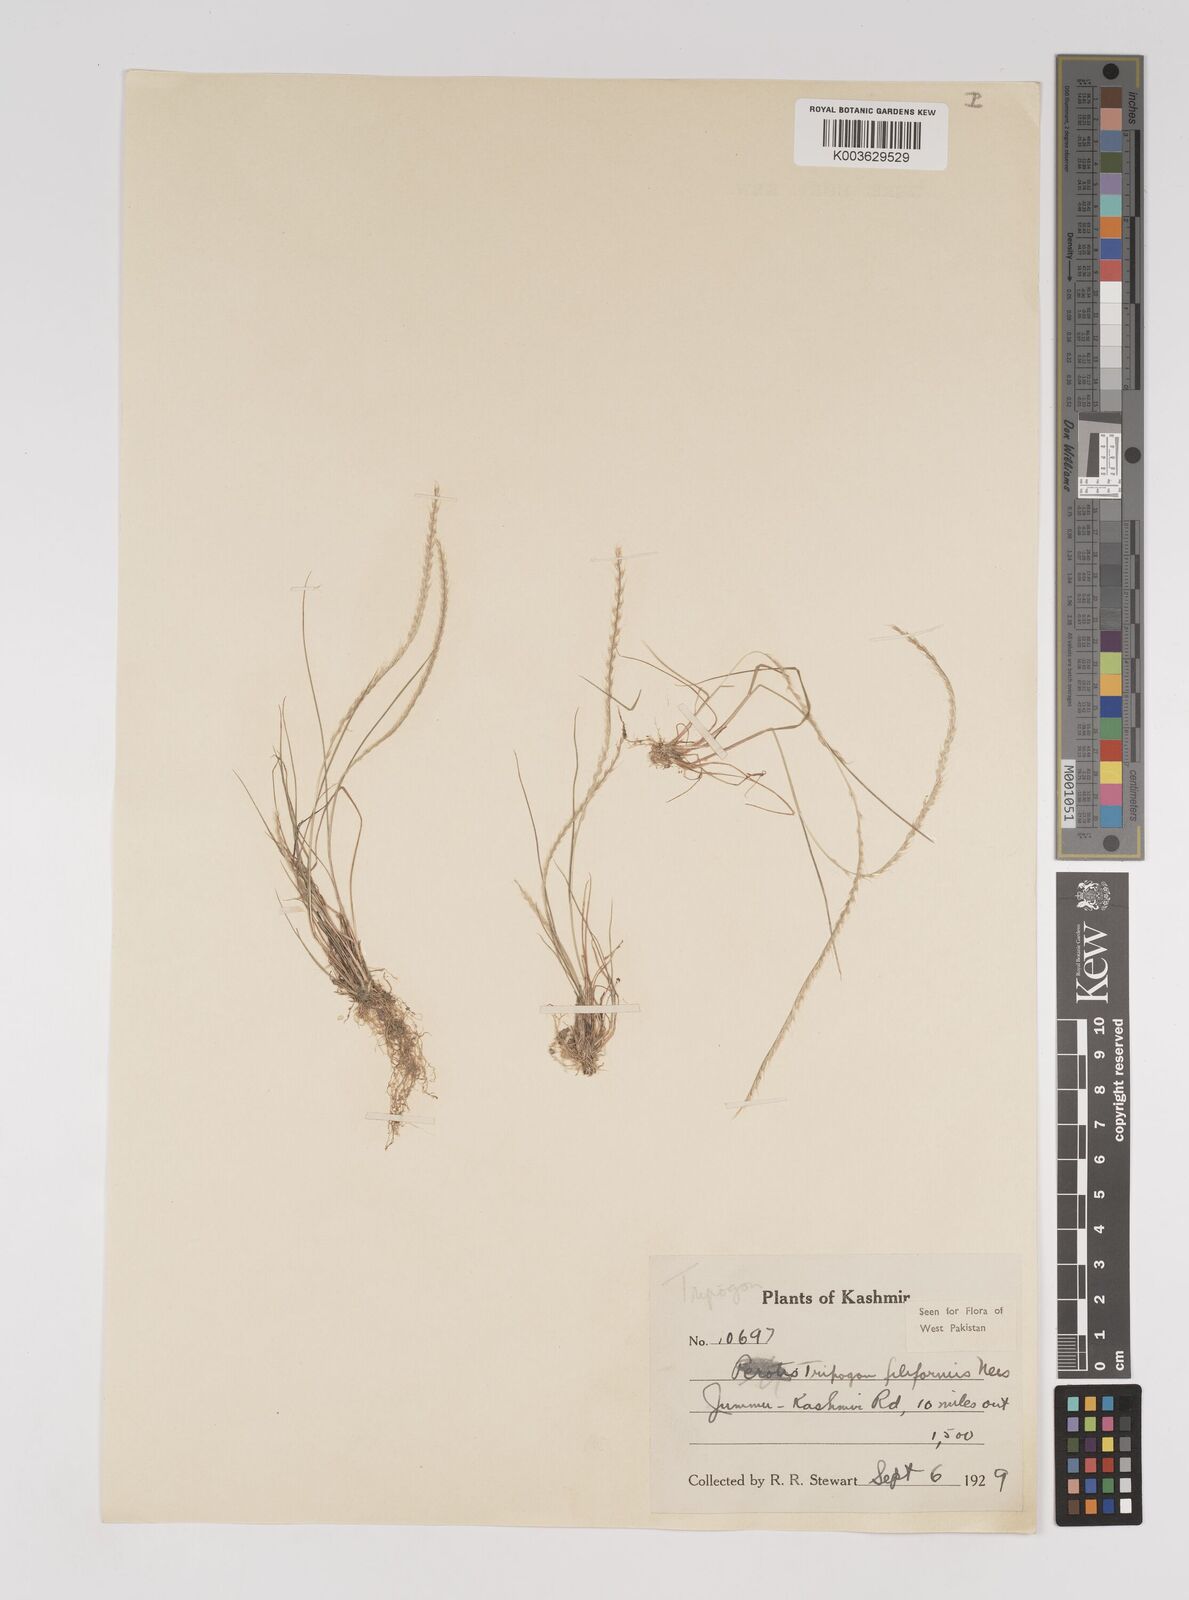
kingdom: Plantae
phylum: Tracheophyta
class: Liliopsida
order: Poales
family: Poaceae
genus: Tripogon
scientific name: Tripogon filiformis
